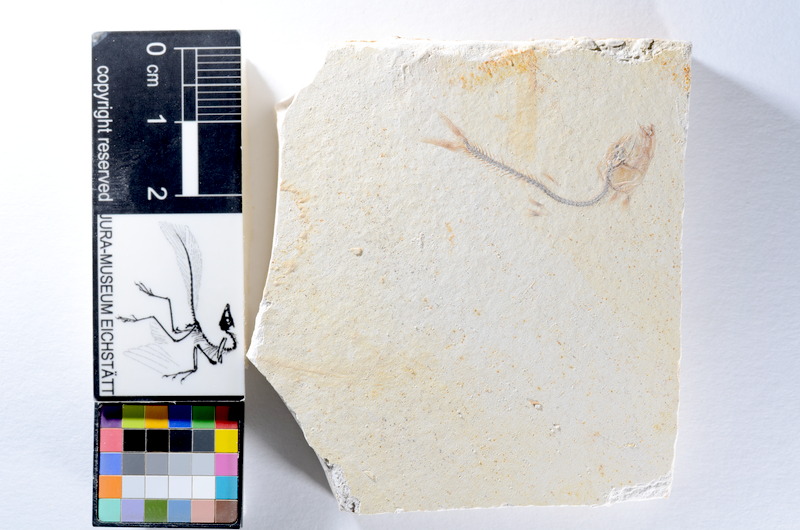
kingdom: Animalia
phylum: Chordata
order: Salmoniformes
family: Orthogonikleithridae
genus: Orthogonikleithrus
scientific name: Orthogonikleithrus hoelli
